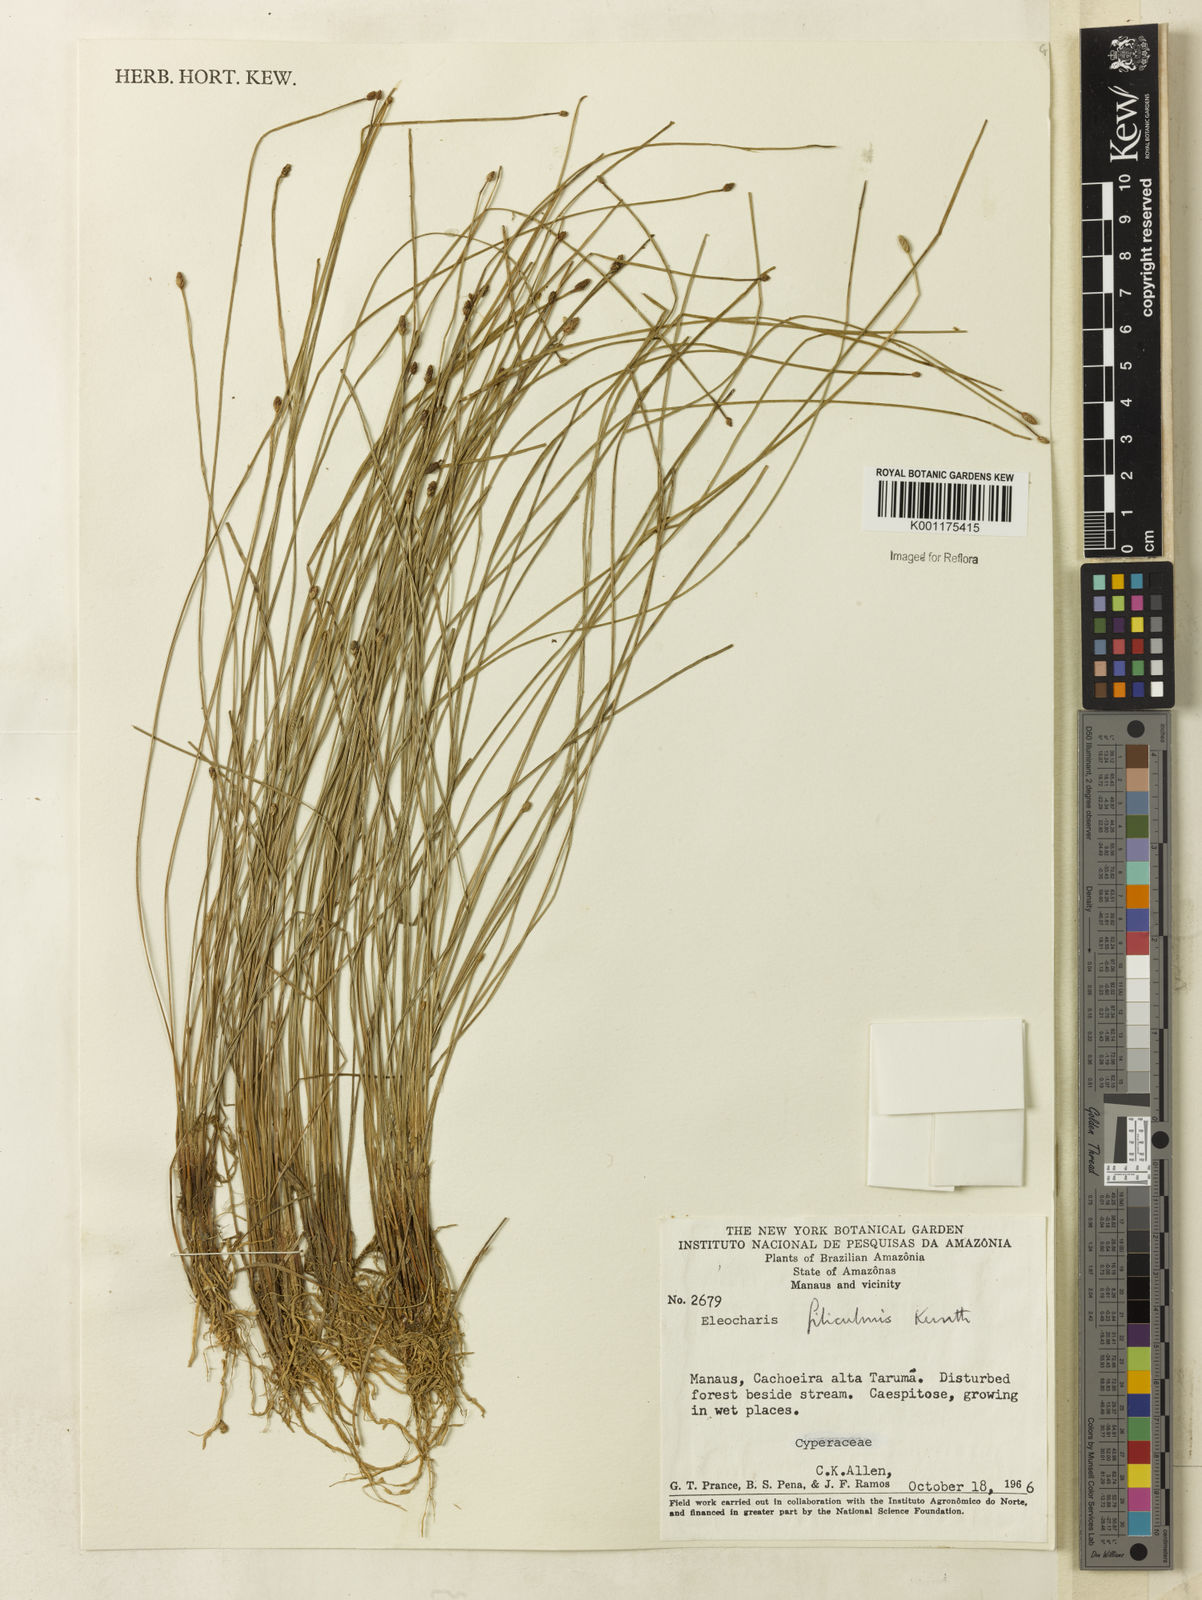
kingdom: Plantae
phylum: Tracheophyta
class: Liliopsida
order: Poales
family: Cyperaceae
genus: Eleocharis
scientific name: Eleocharis filiculmis
